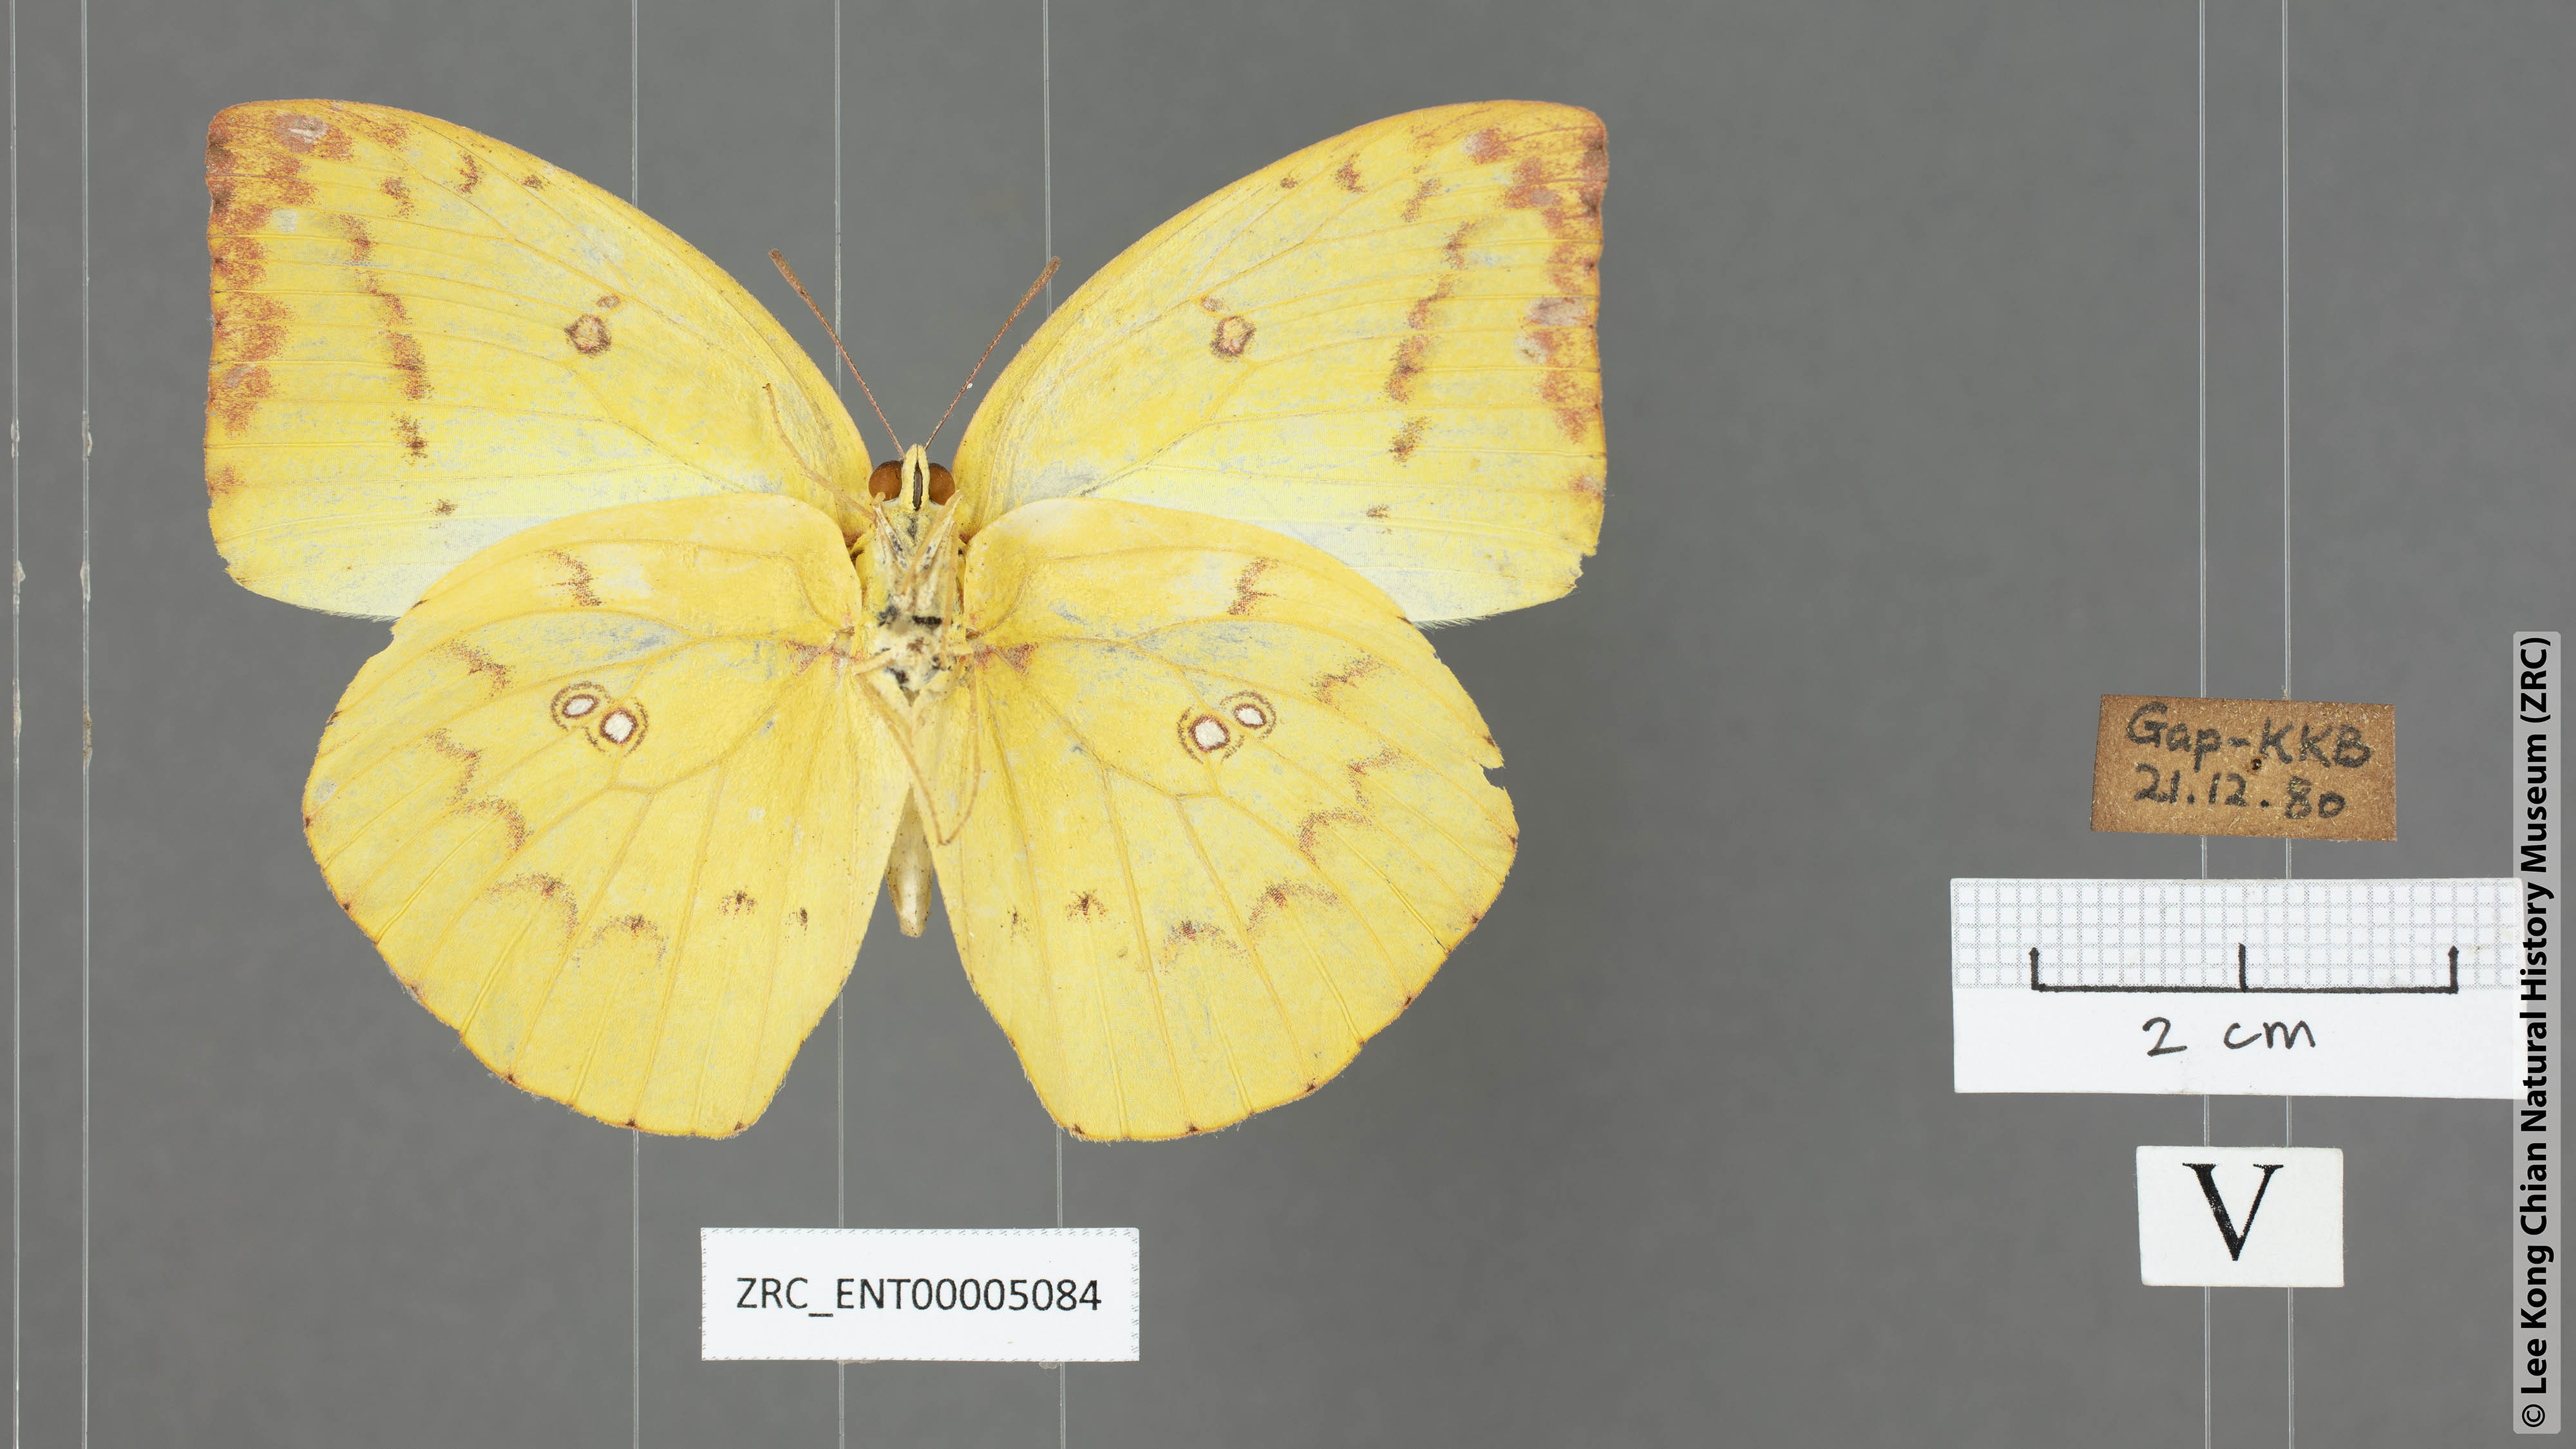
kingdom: Animalia
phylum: Arthropoda
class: Insecta
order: Lepidoptera
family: Pieridae
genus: Catopsilia
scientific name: Catopsilia pomona
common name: Common emigrant
